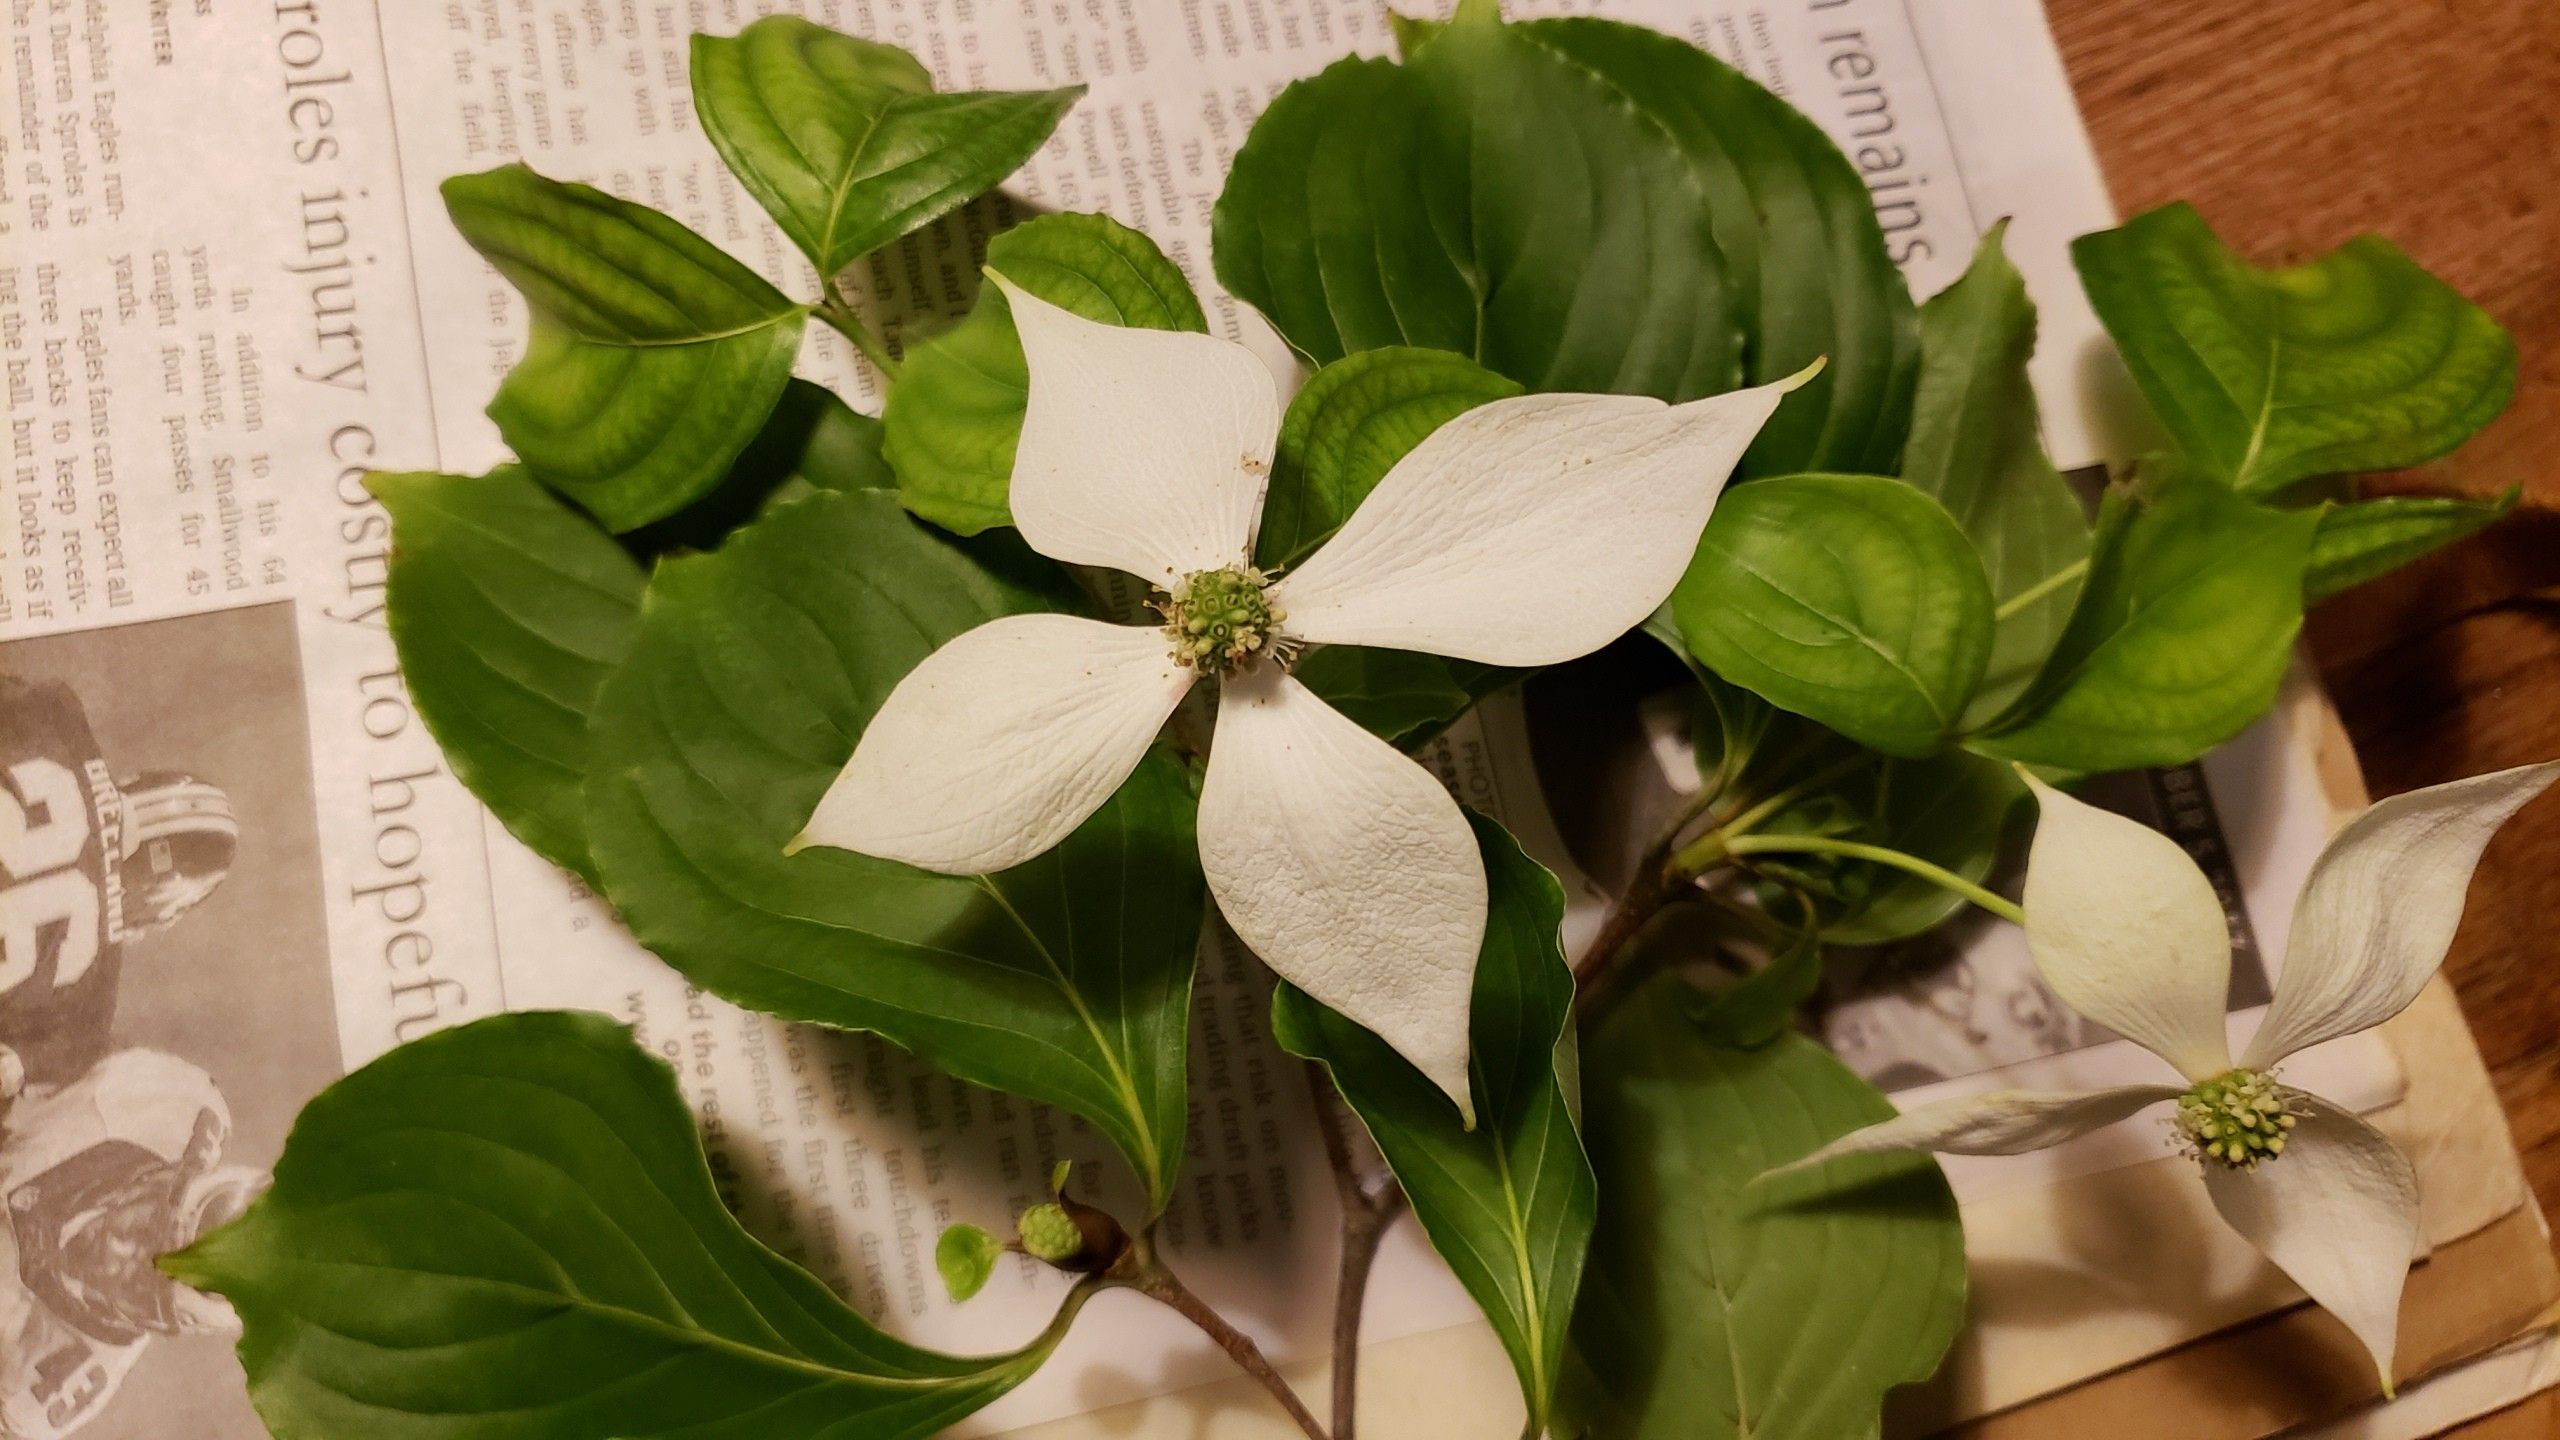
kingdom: Plantae
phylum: Tracheophyta
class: Magnoliopsida
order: Cornales
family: Cornaceae
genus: Cornus
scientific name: Cornus kousa
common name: Kousa Dogwood
